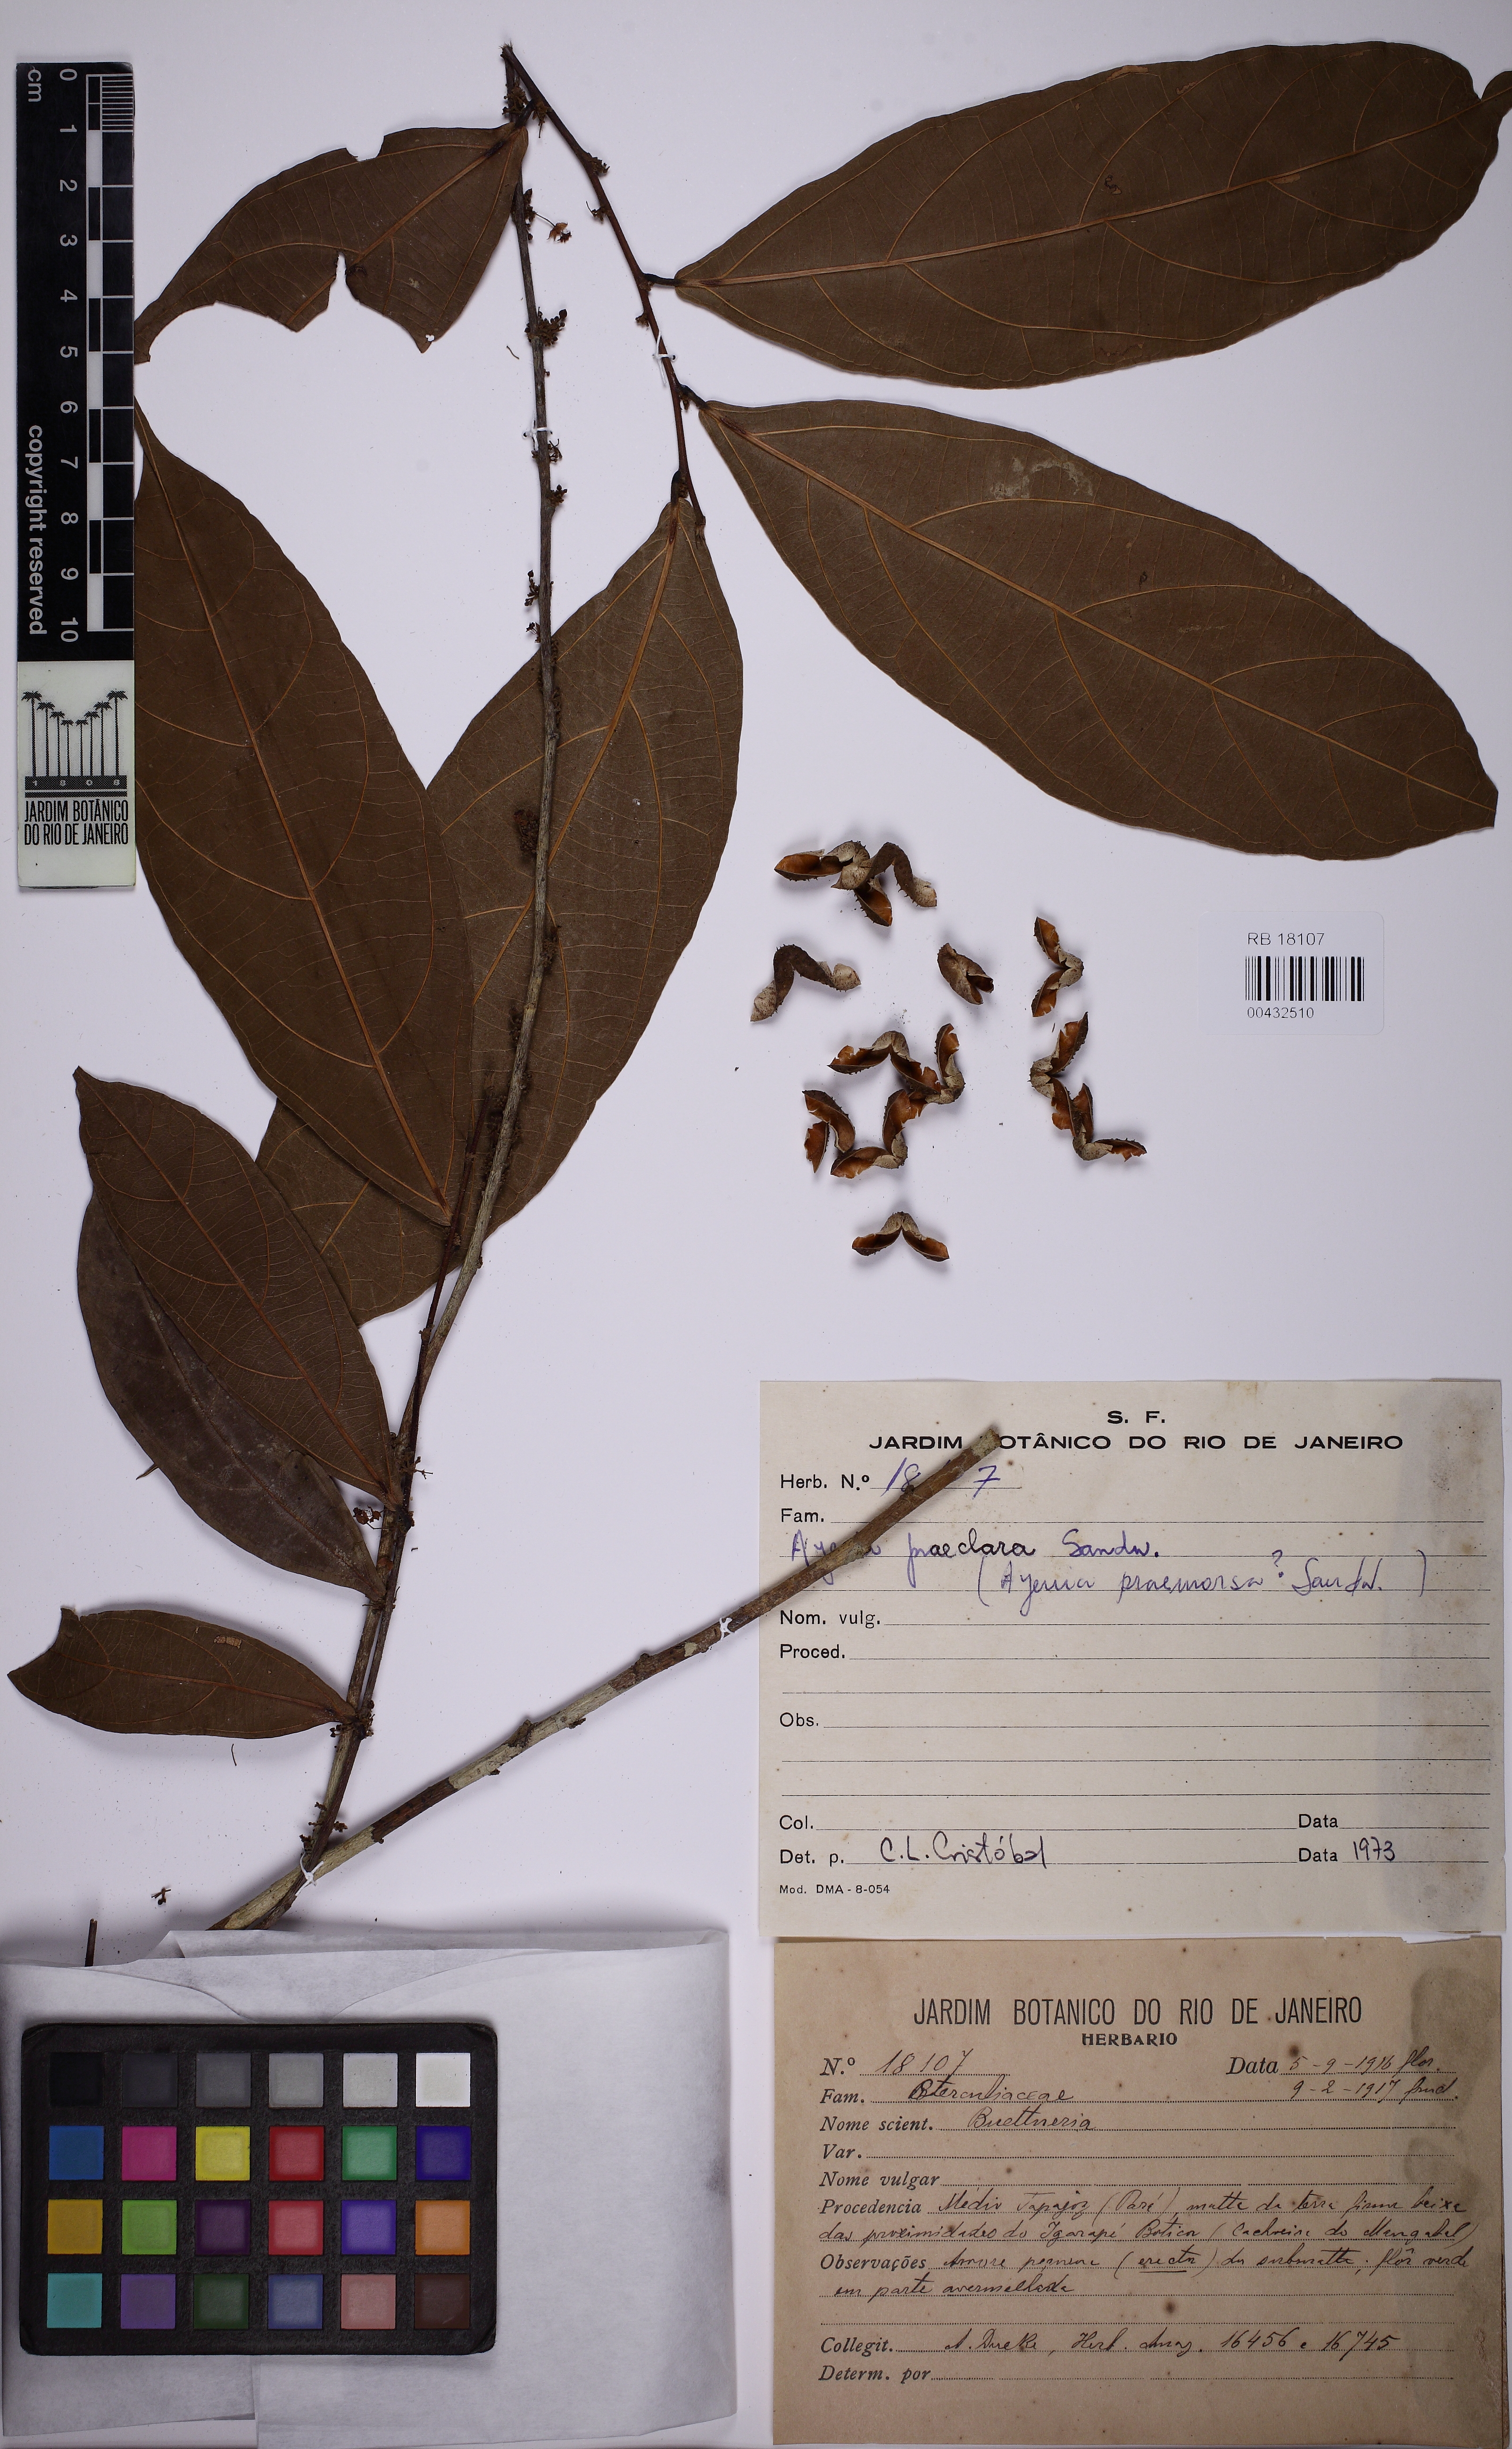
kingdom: Plantae
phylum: Tracheophyta
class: Magnoliopsida
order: Malvales
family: Malvaceae
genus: Ayenia
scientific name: Ayenia praeclara
